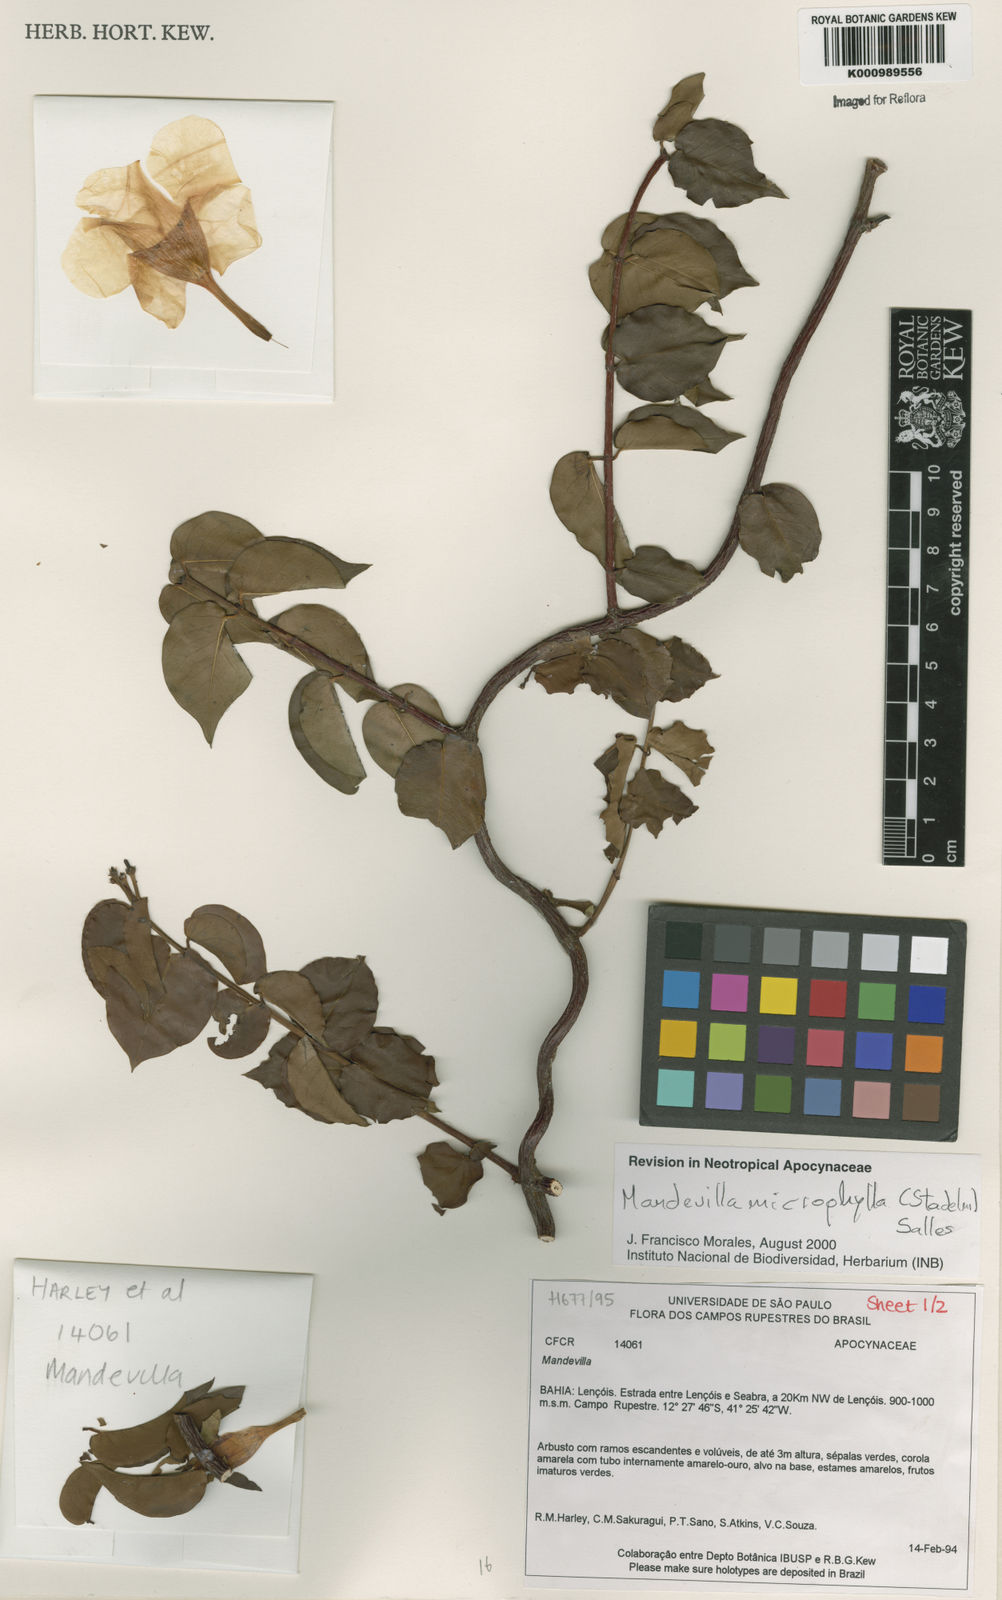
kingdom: Plantae
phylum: Tracheophyta
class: Magnoliopsida
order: Gentianales
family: Apocynaceae
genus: Mandevilla
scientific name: Mandevilla
